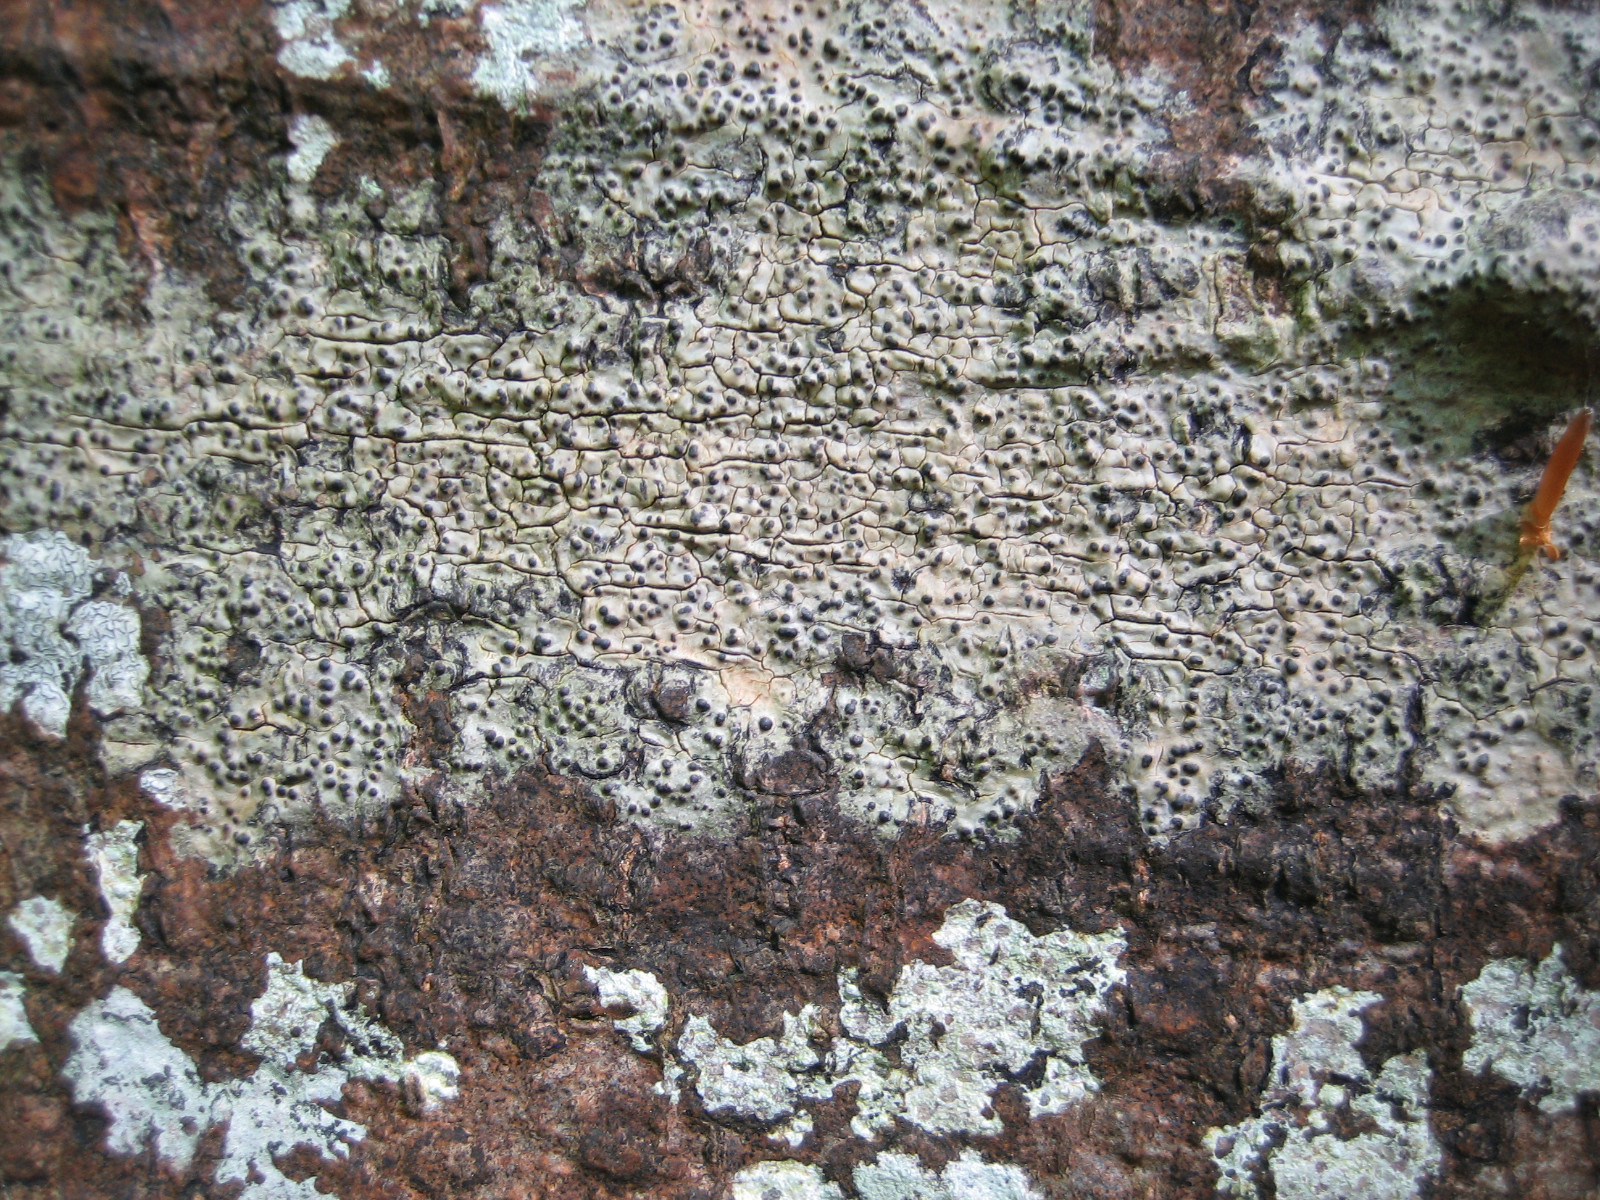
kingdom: Fungi
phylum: Ascomycota
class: Eurotiomycetes
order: Pyrenulales
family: Pyrenulaceae
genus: Pyrenula
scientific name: Pyrenula nitida
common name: glinsende kernelav
